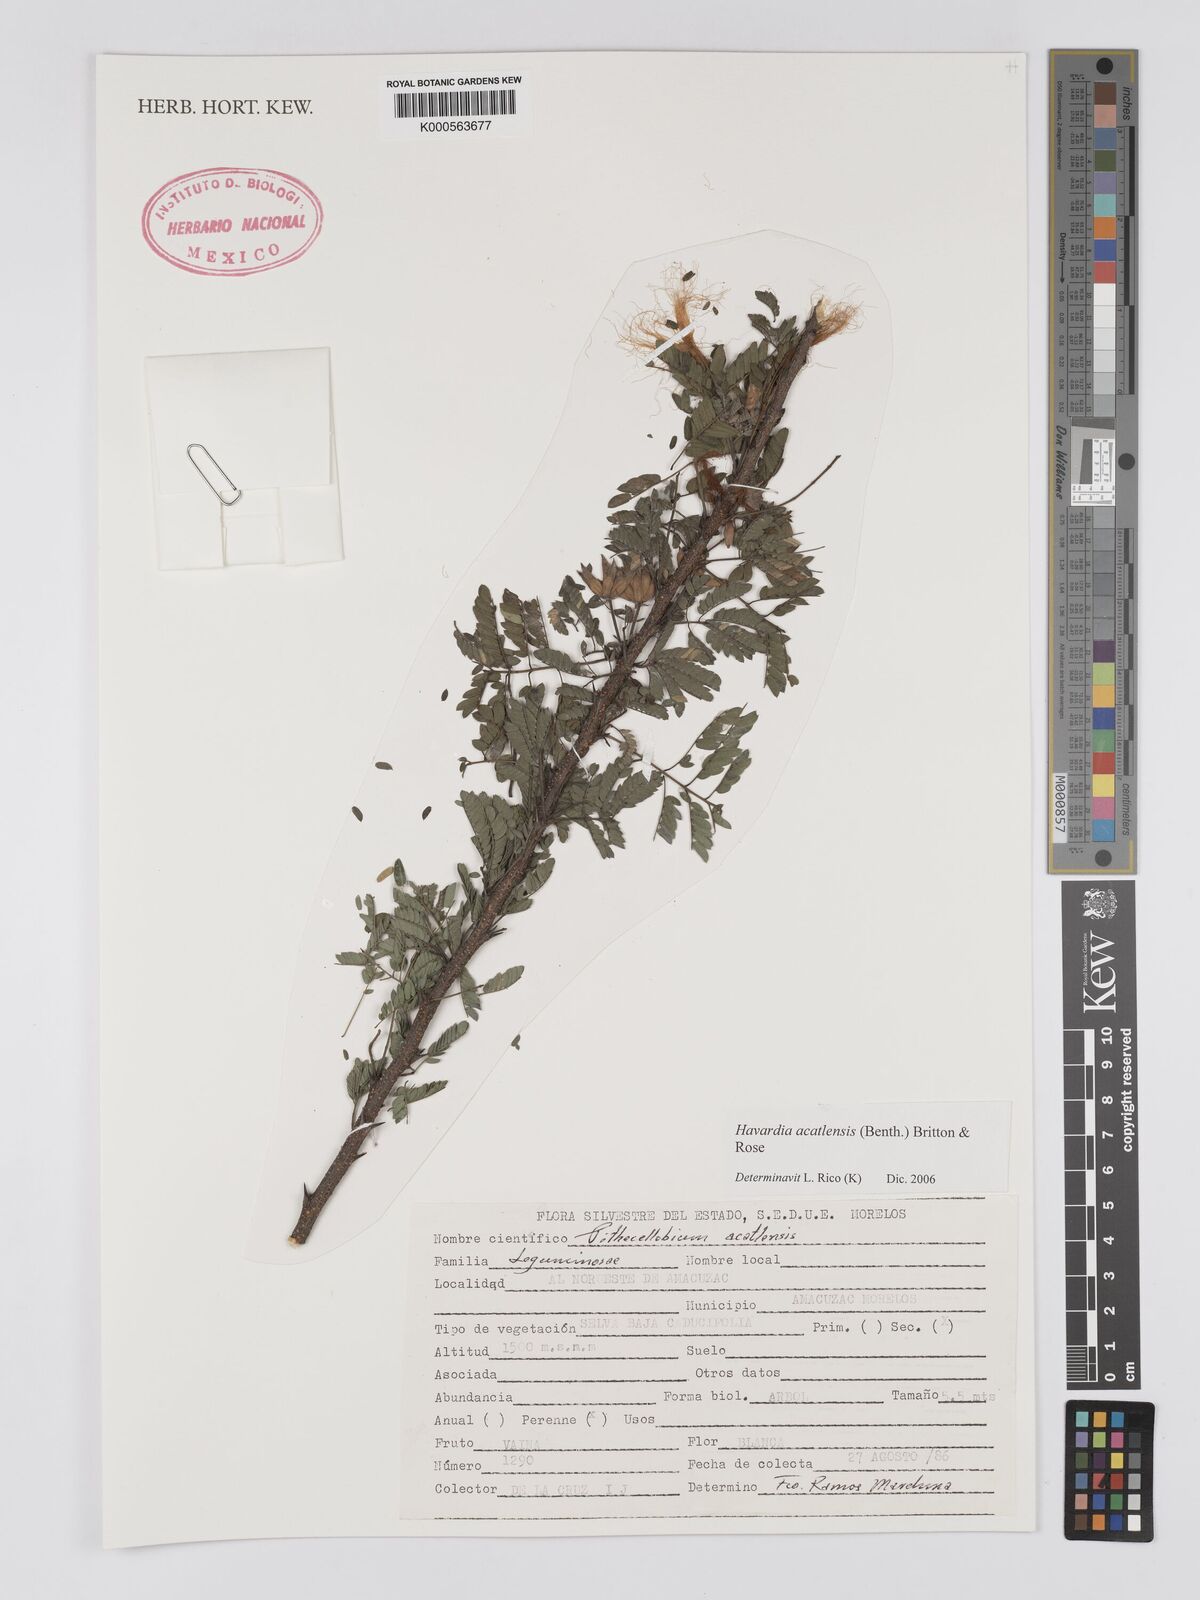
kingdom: Plantae
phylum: Tracheophyta
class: Magnoliopsida
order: Fabales
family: Fabaceae
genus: Havardia
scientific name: Havardia acatlensis
